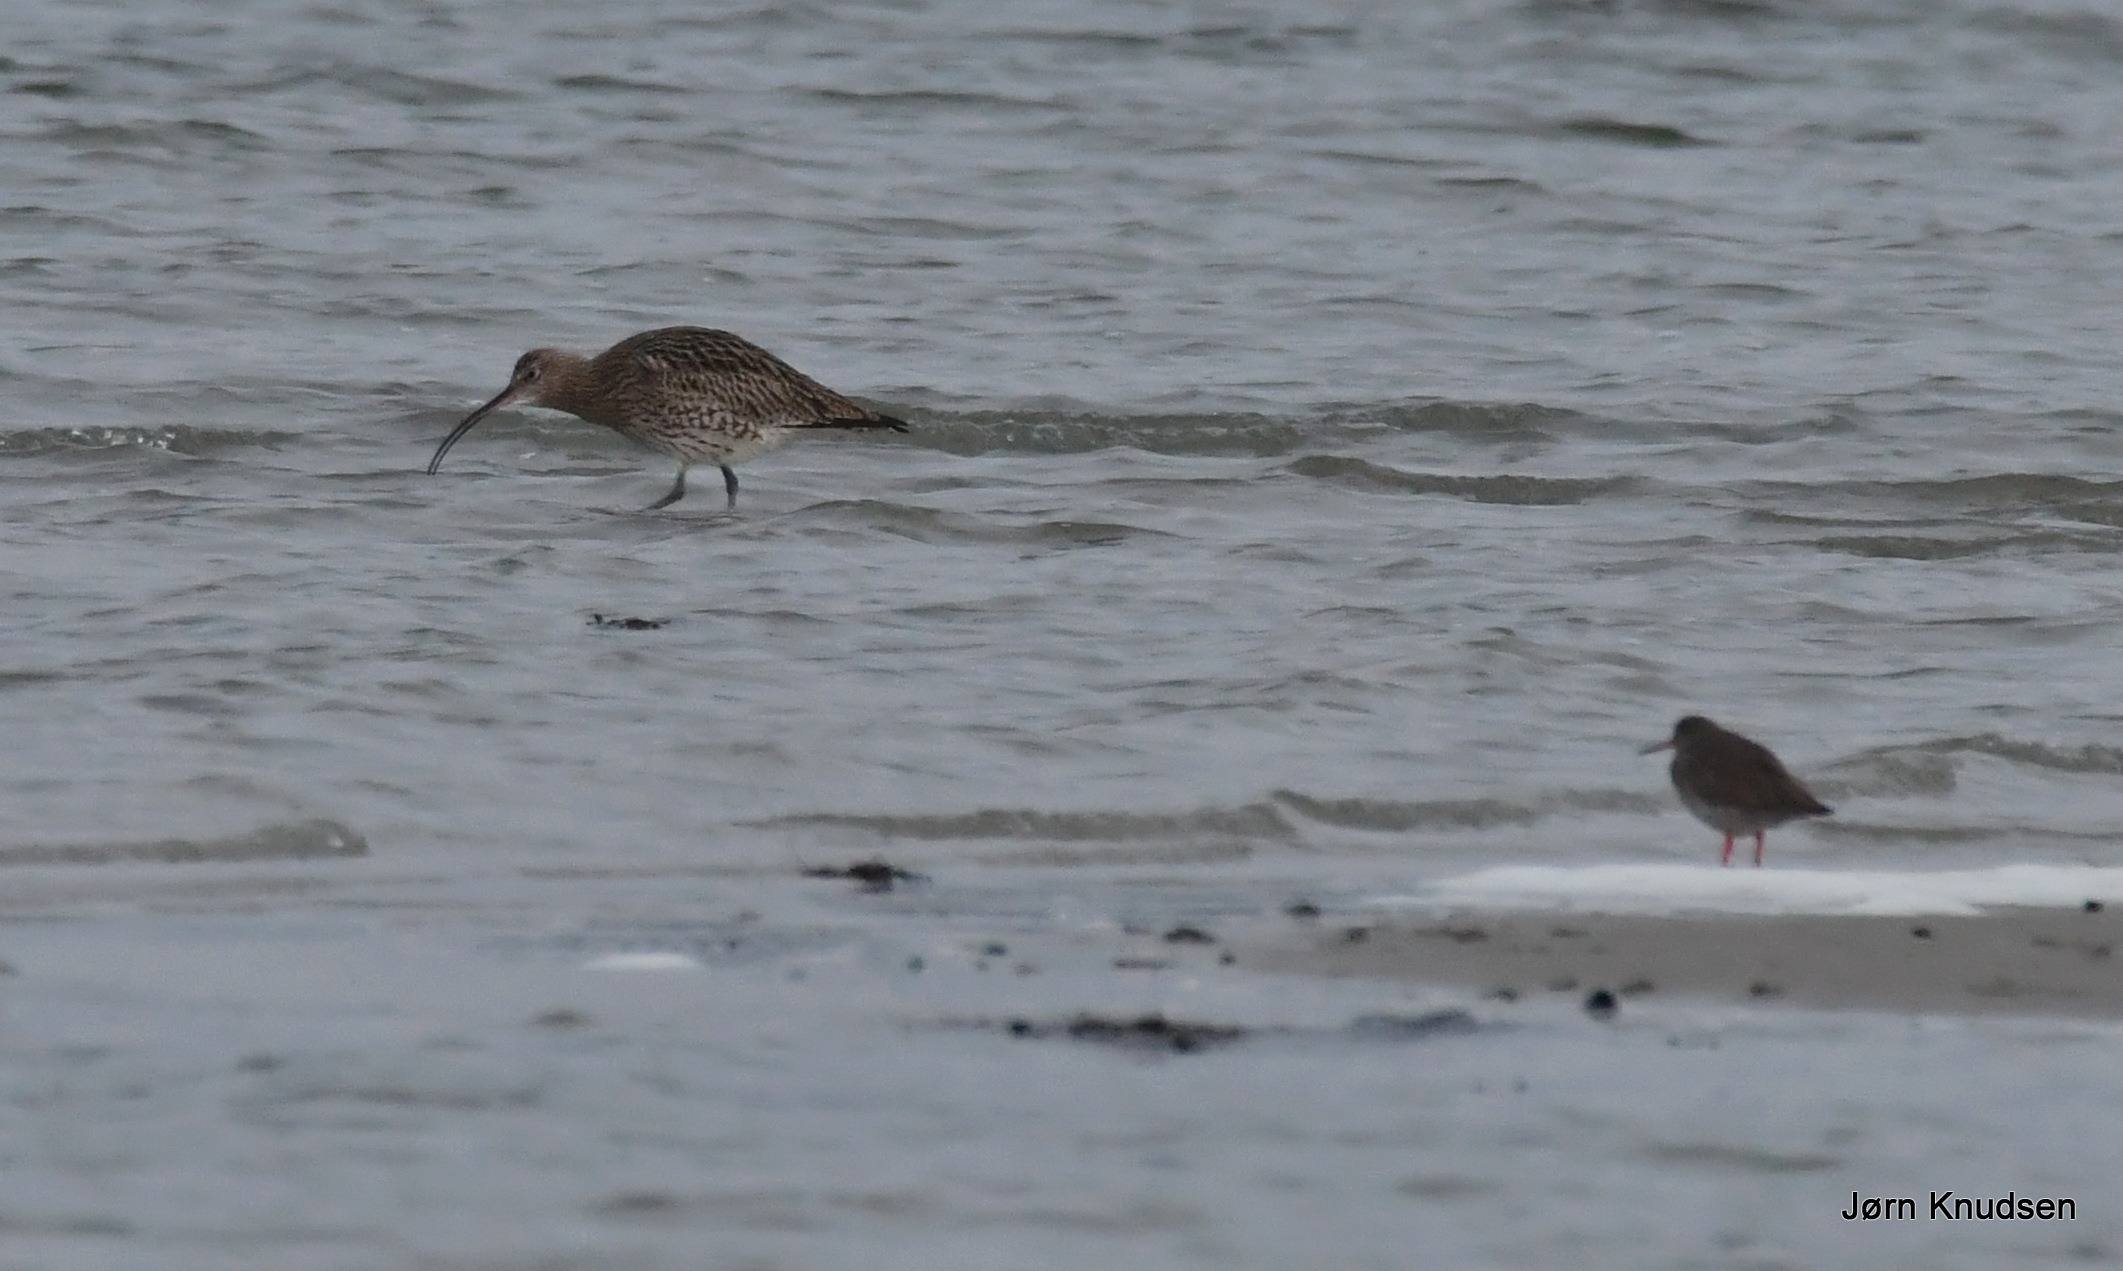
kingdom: Animalia
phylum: Chordata
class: Aves
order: Charadriiformes
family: Scolopacidae
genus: Numenius
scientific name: Numenius arquata
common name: Storspove
